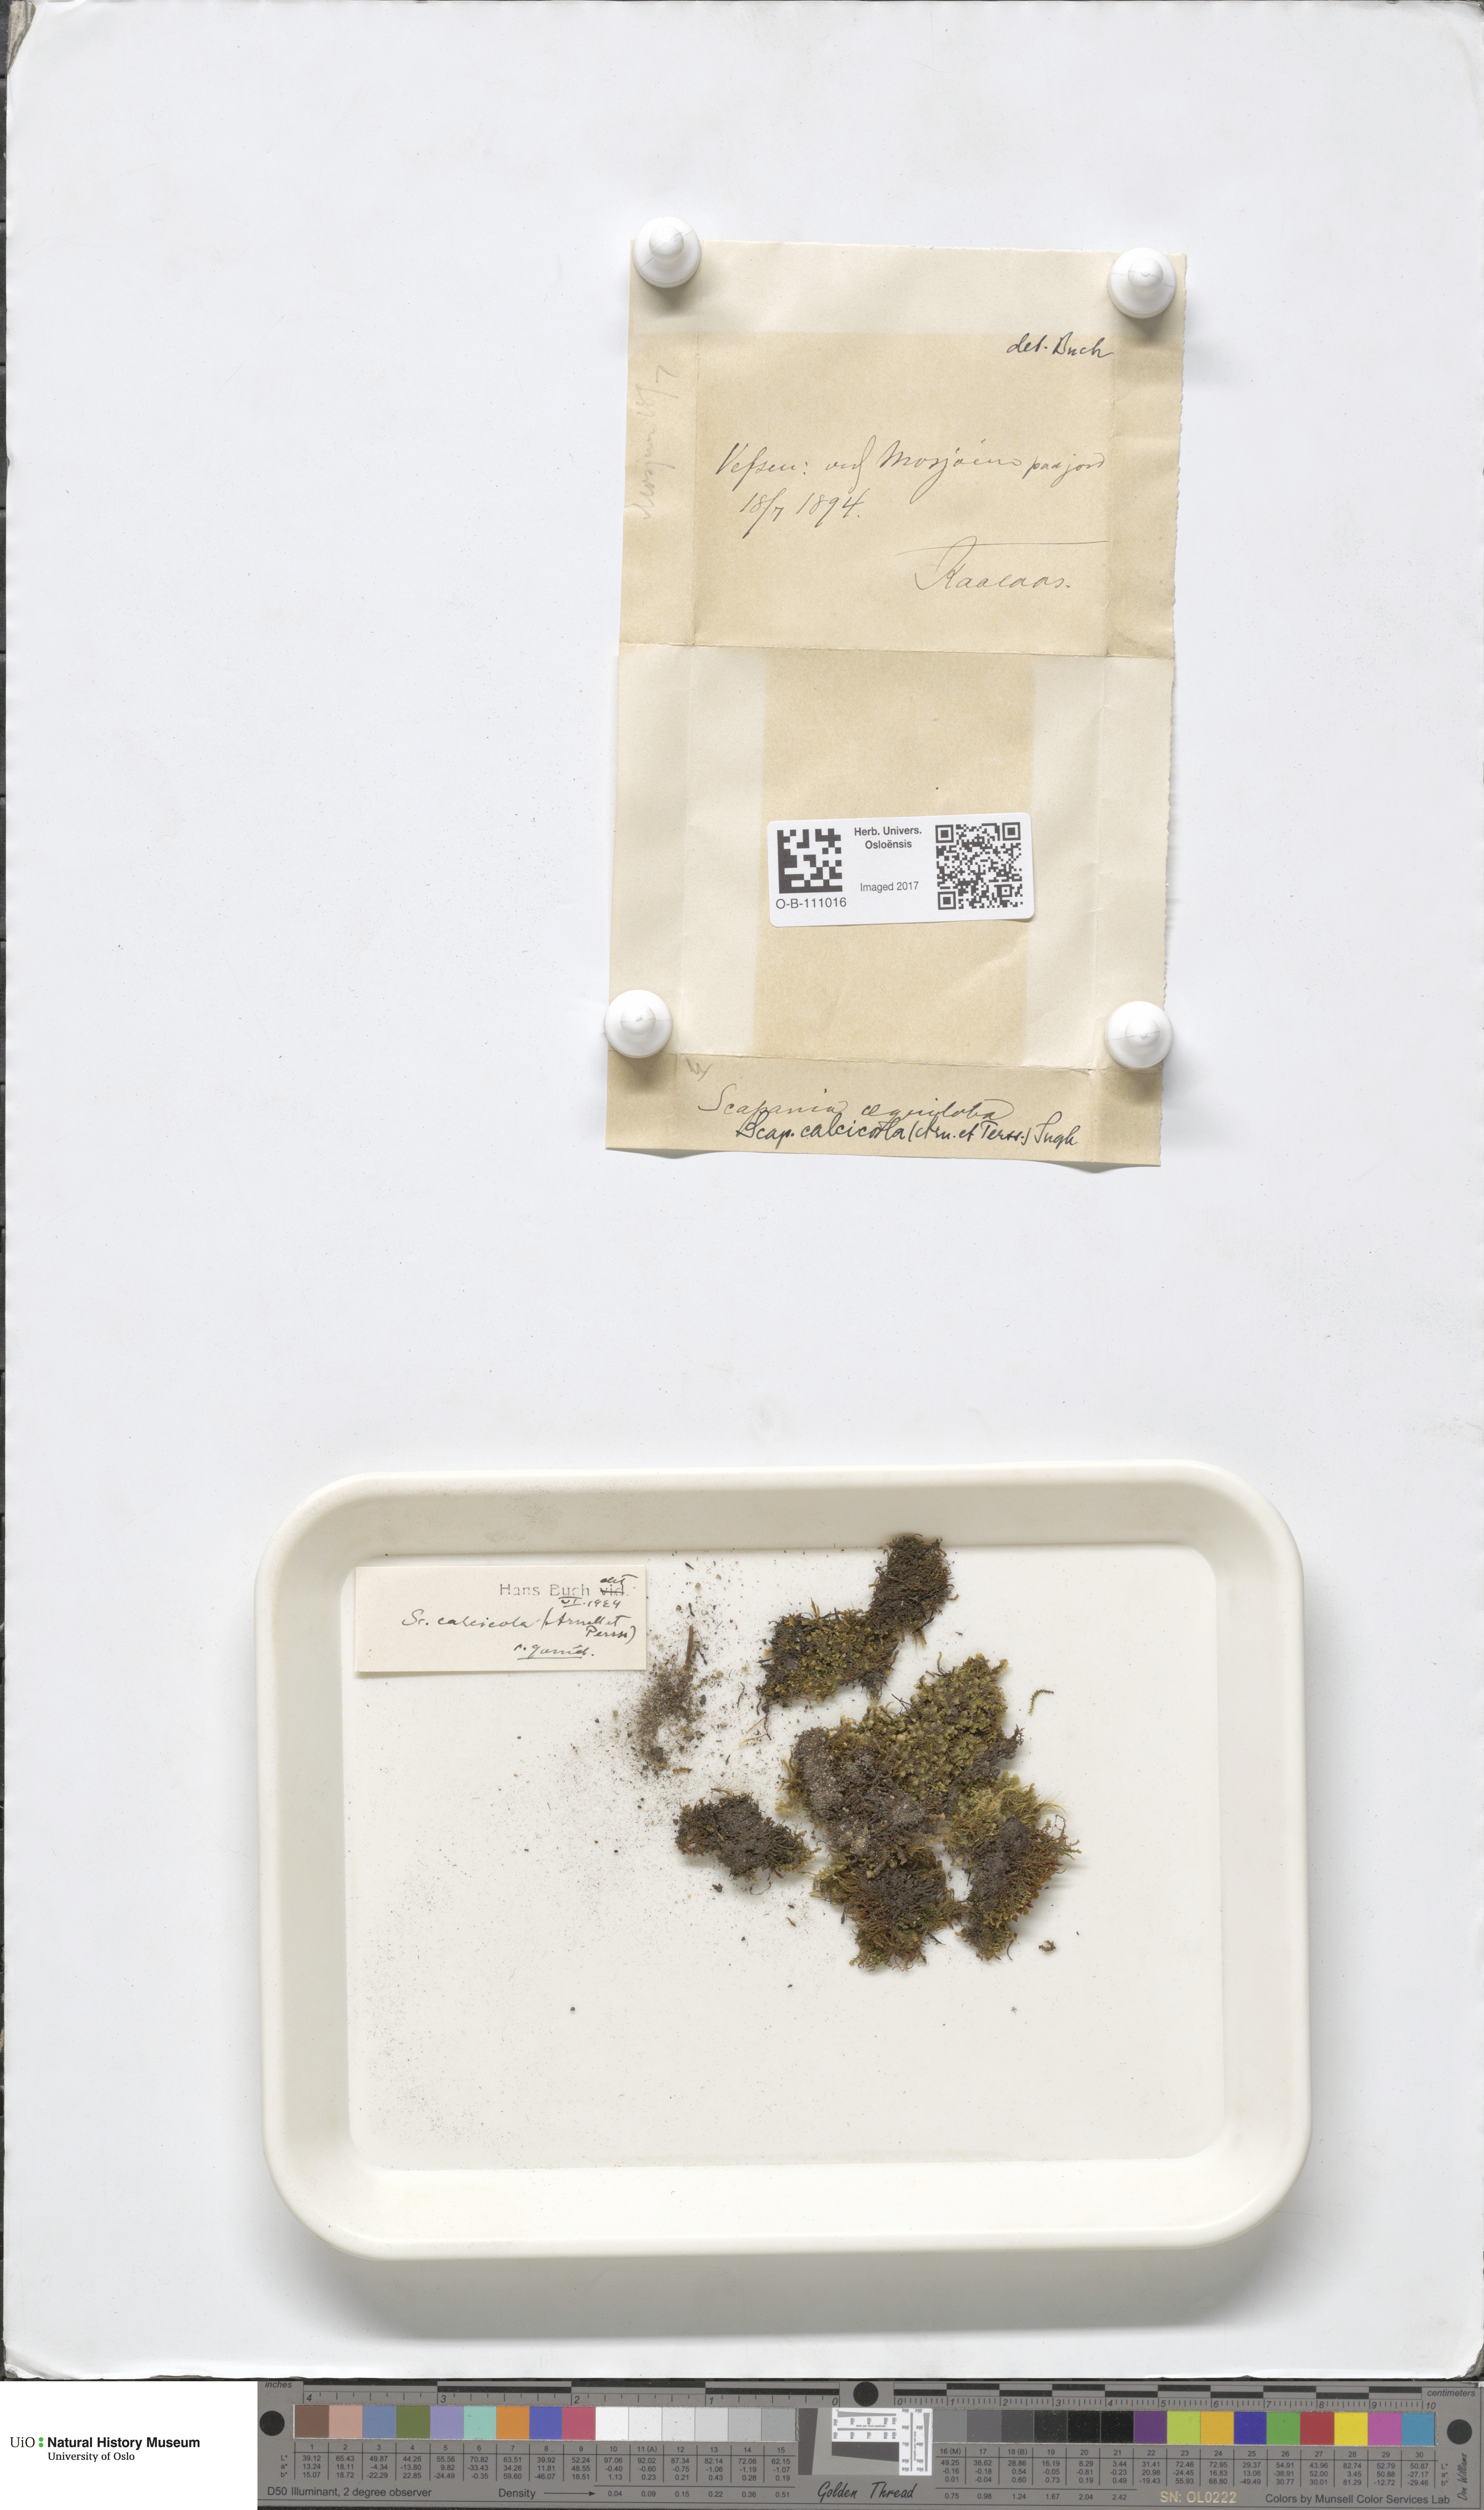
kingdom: Plantae
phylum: Marchantiophyta
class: Jungermanniopsida
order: Jungermanniales
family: Scapaniaceae
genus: Scapania
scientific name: Scapania calcicola
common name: Calcicolous earwort
